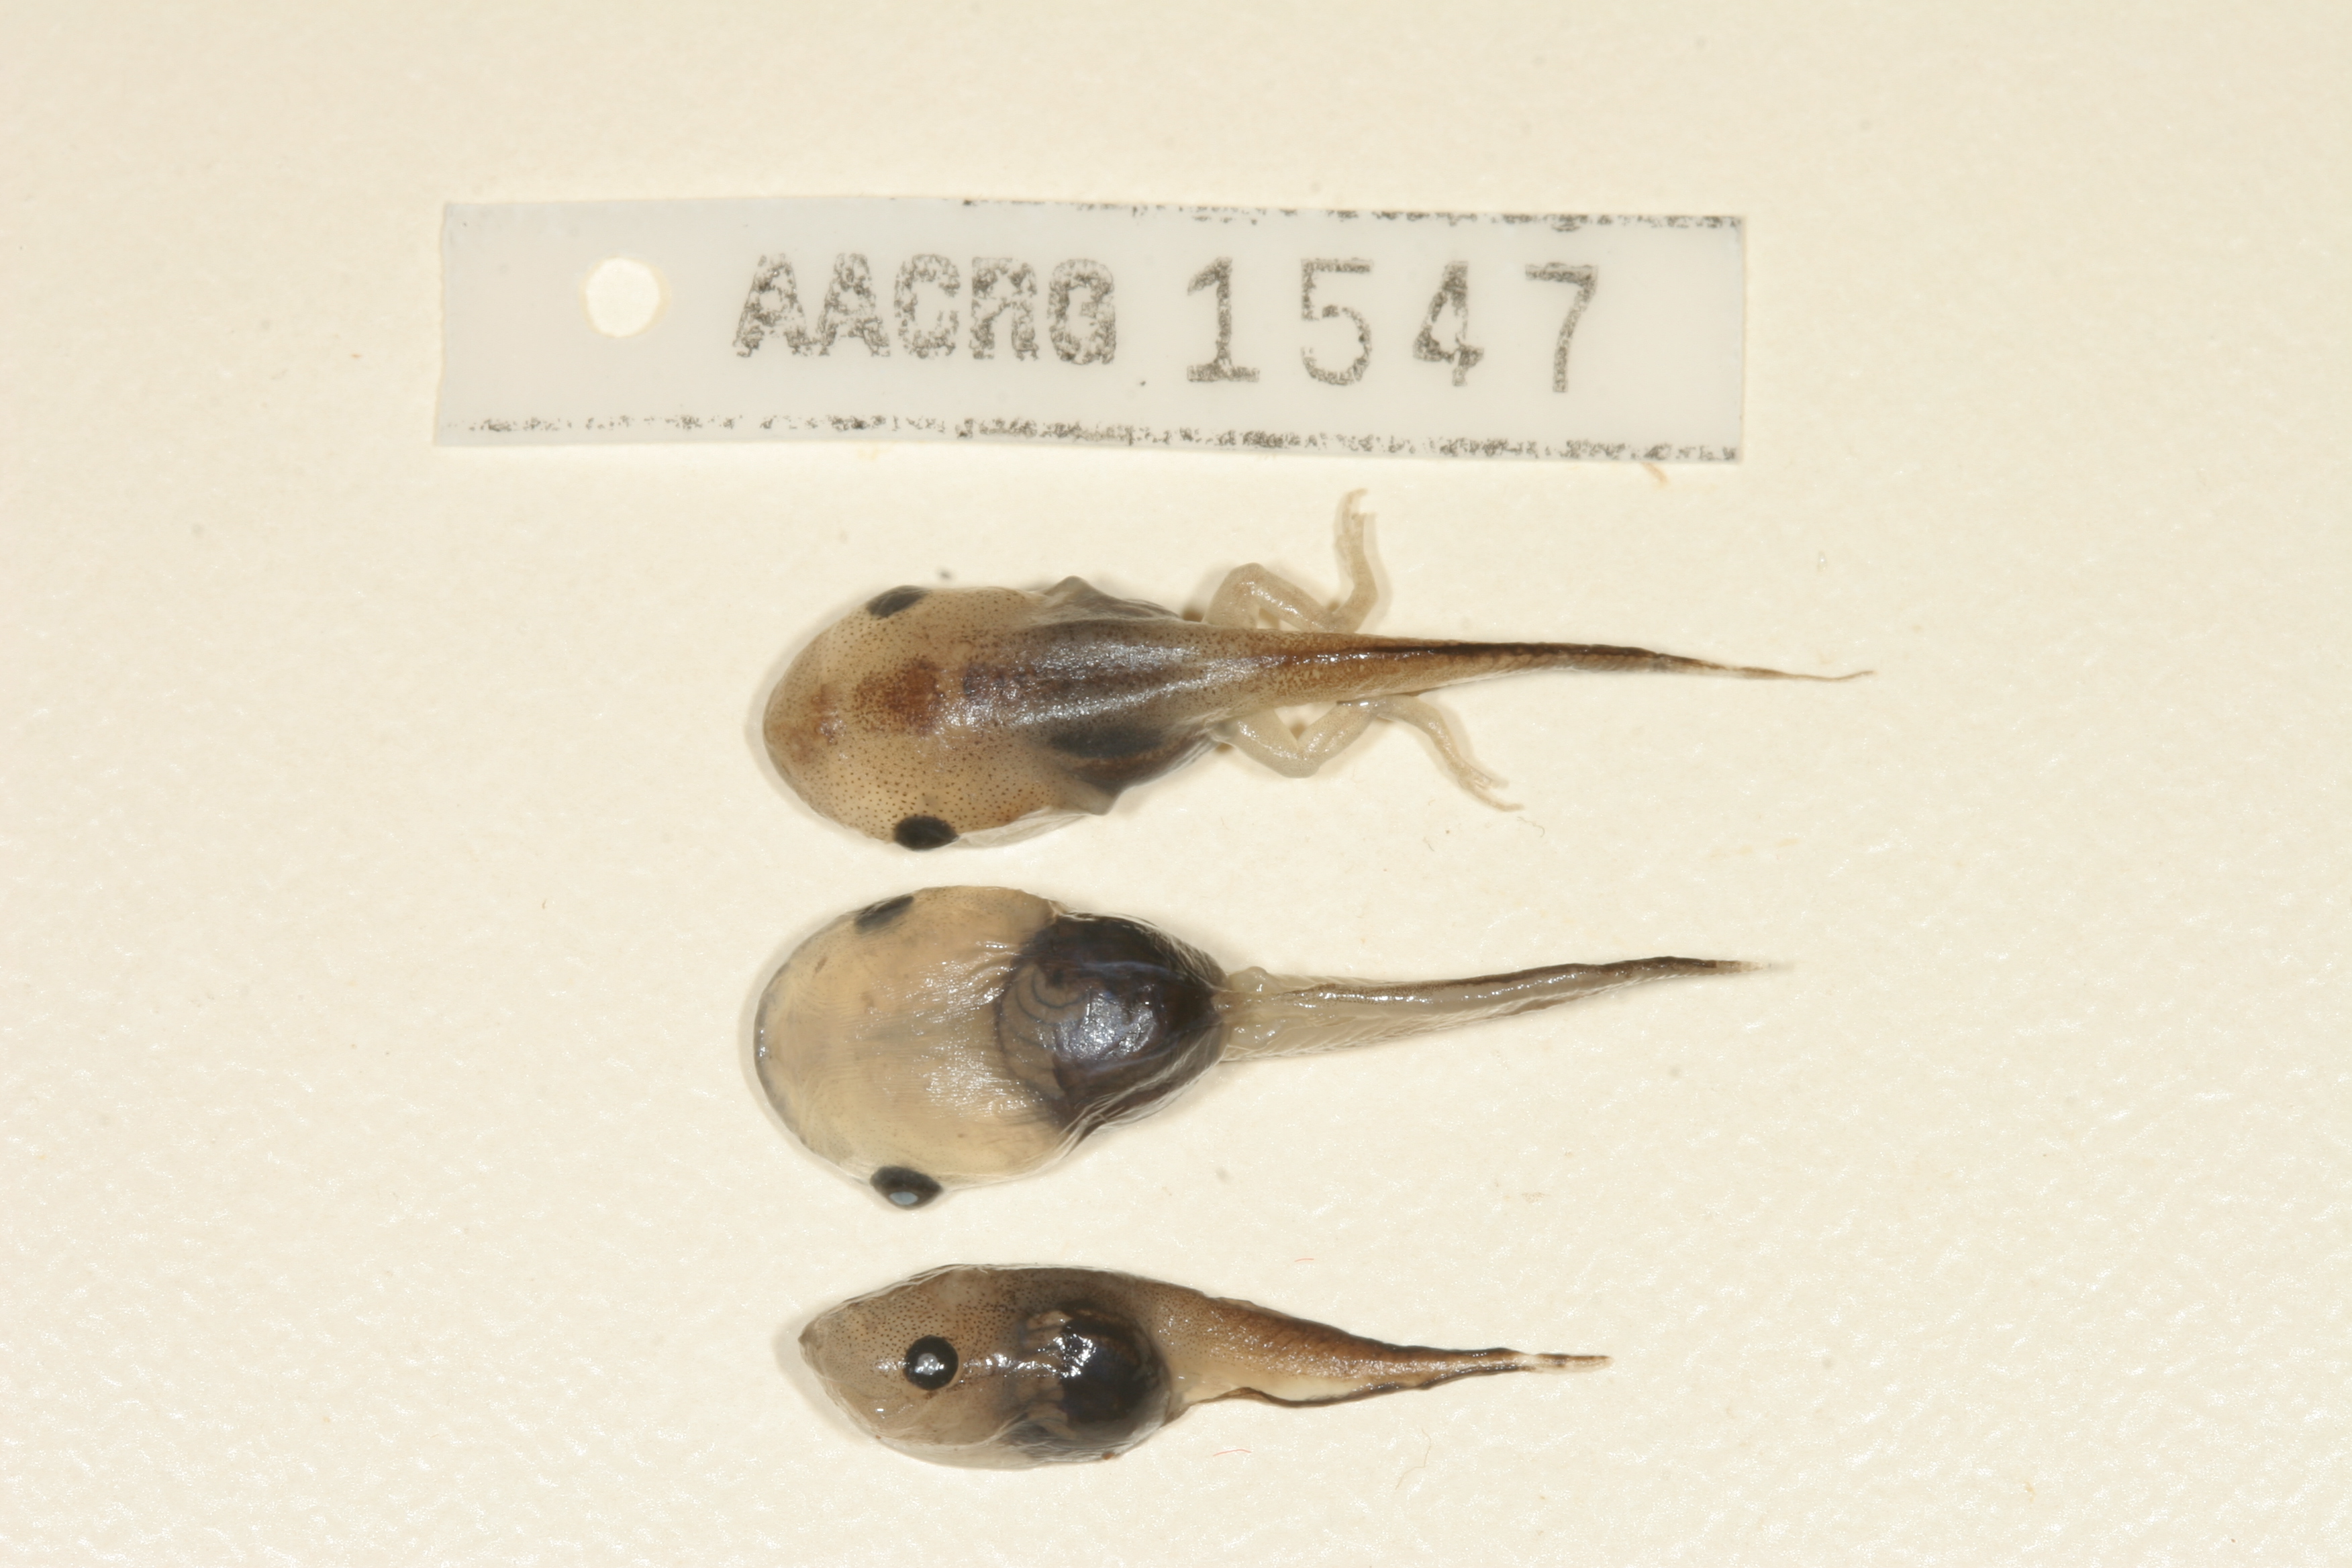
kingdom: Animalia
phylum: Chordata
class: Amphibia
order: Anura
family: Microhylidae
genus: Phrynomantis
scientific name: Phrynomantis bifasciatus
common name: Banded rubber frog
